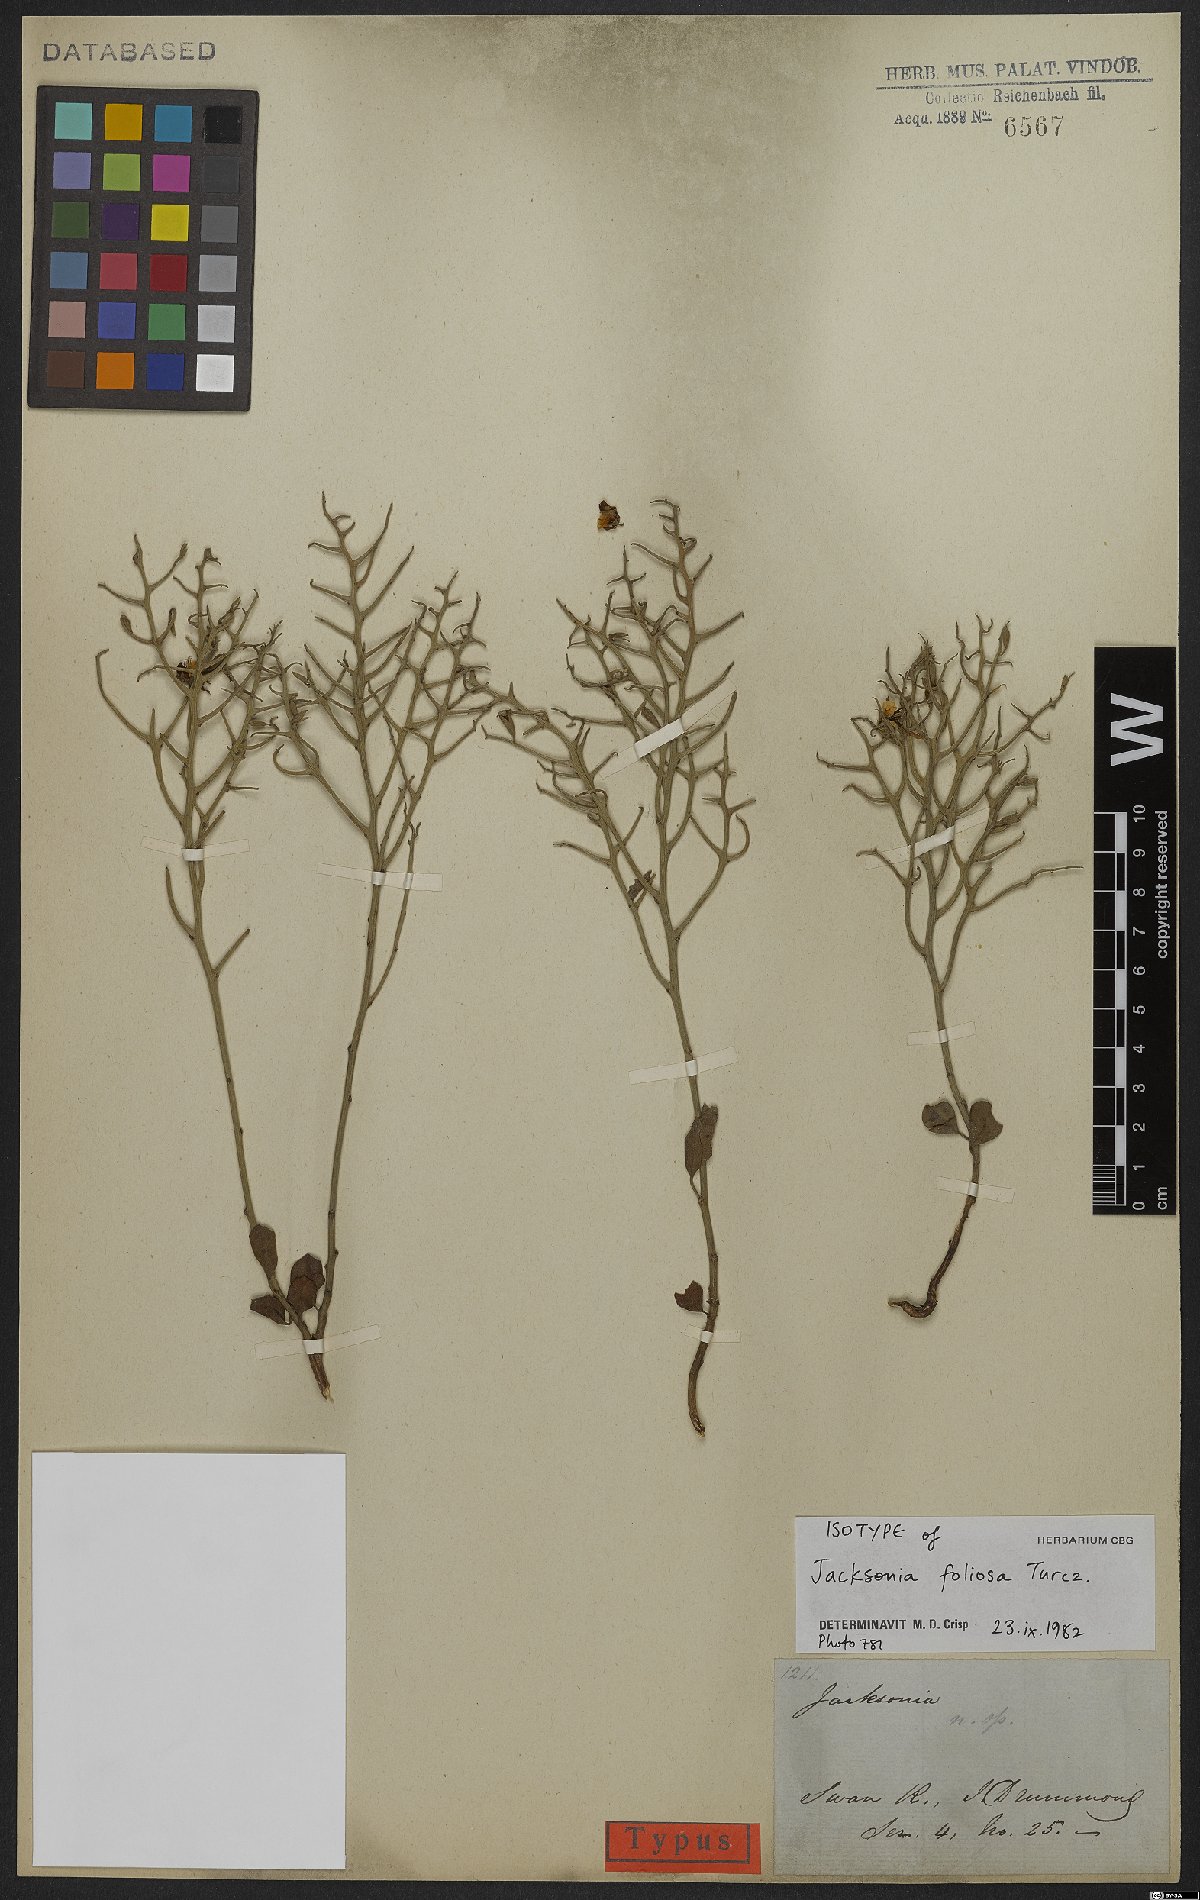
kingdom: Plantae
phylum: Tracheophyta
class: Magnoliopsida
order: Fabales
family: Fabaceae
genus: Jacksonia
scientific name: Jacksonia foliosa
